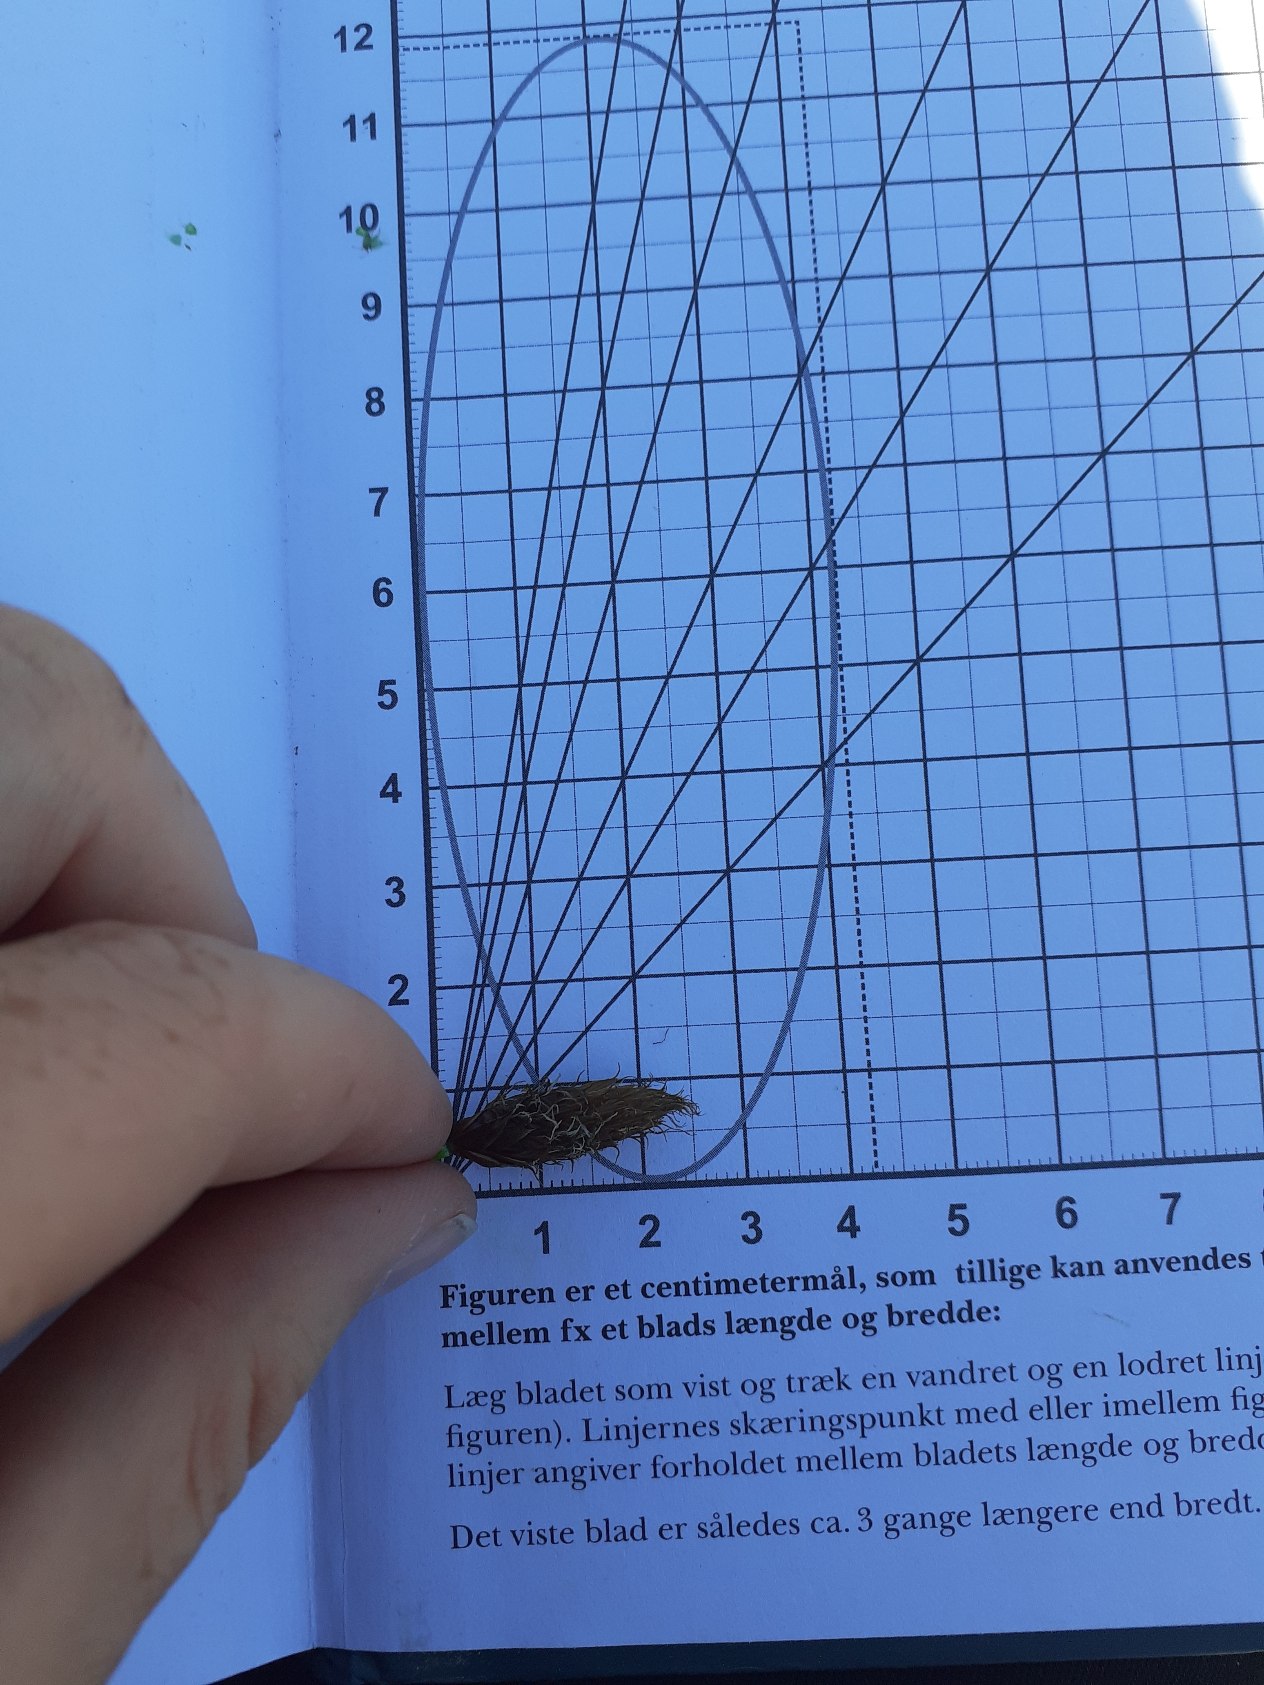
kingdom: Plantae
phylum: Tracheophyta
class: Liliopsida
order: Poales
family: Cyperaceae
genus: Bolboschoenus
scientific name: Bolboschoenus maritimus
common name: Strand-kogleaks
